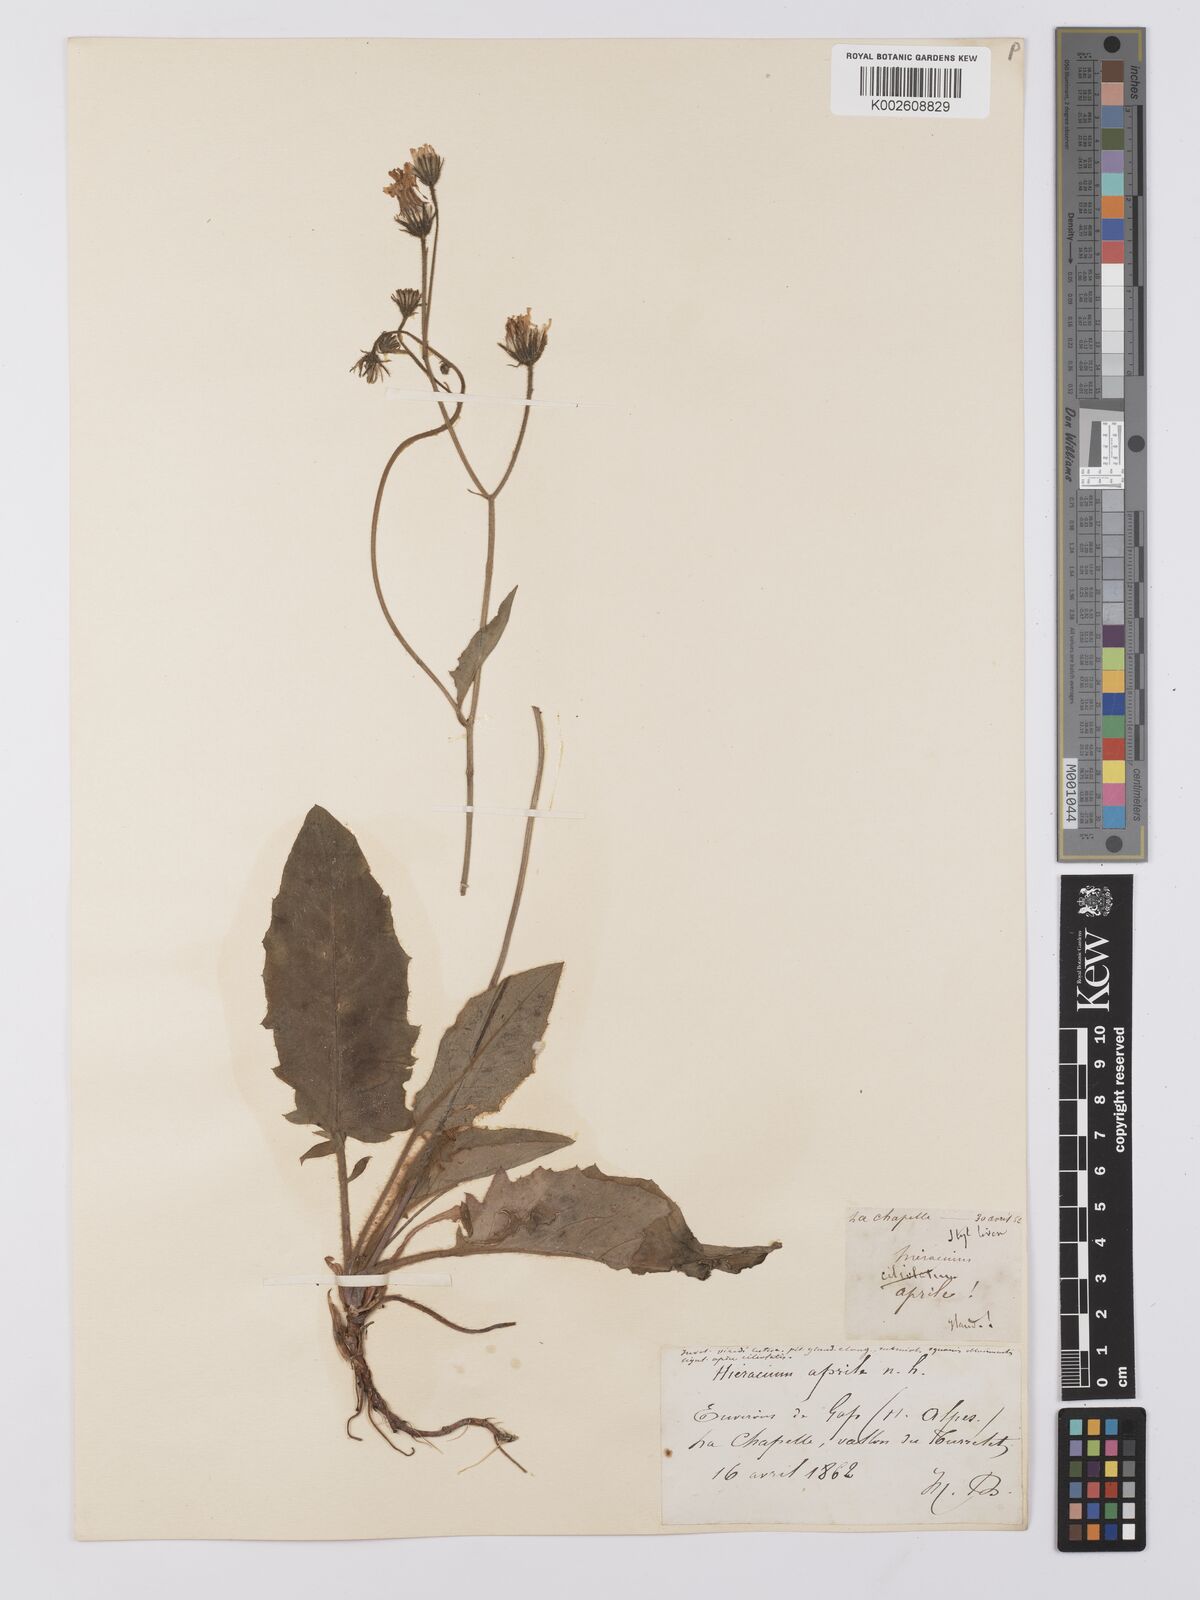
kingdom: Plantae
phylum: Tracheophyta
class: Magnoliopsida
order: Asterales
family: Asteraceae
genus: Hieracium
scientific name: Hieracium
